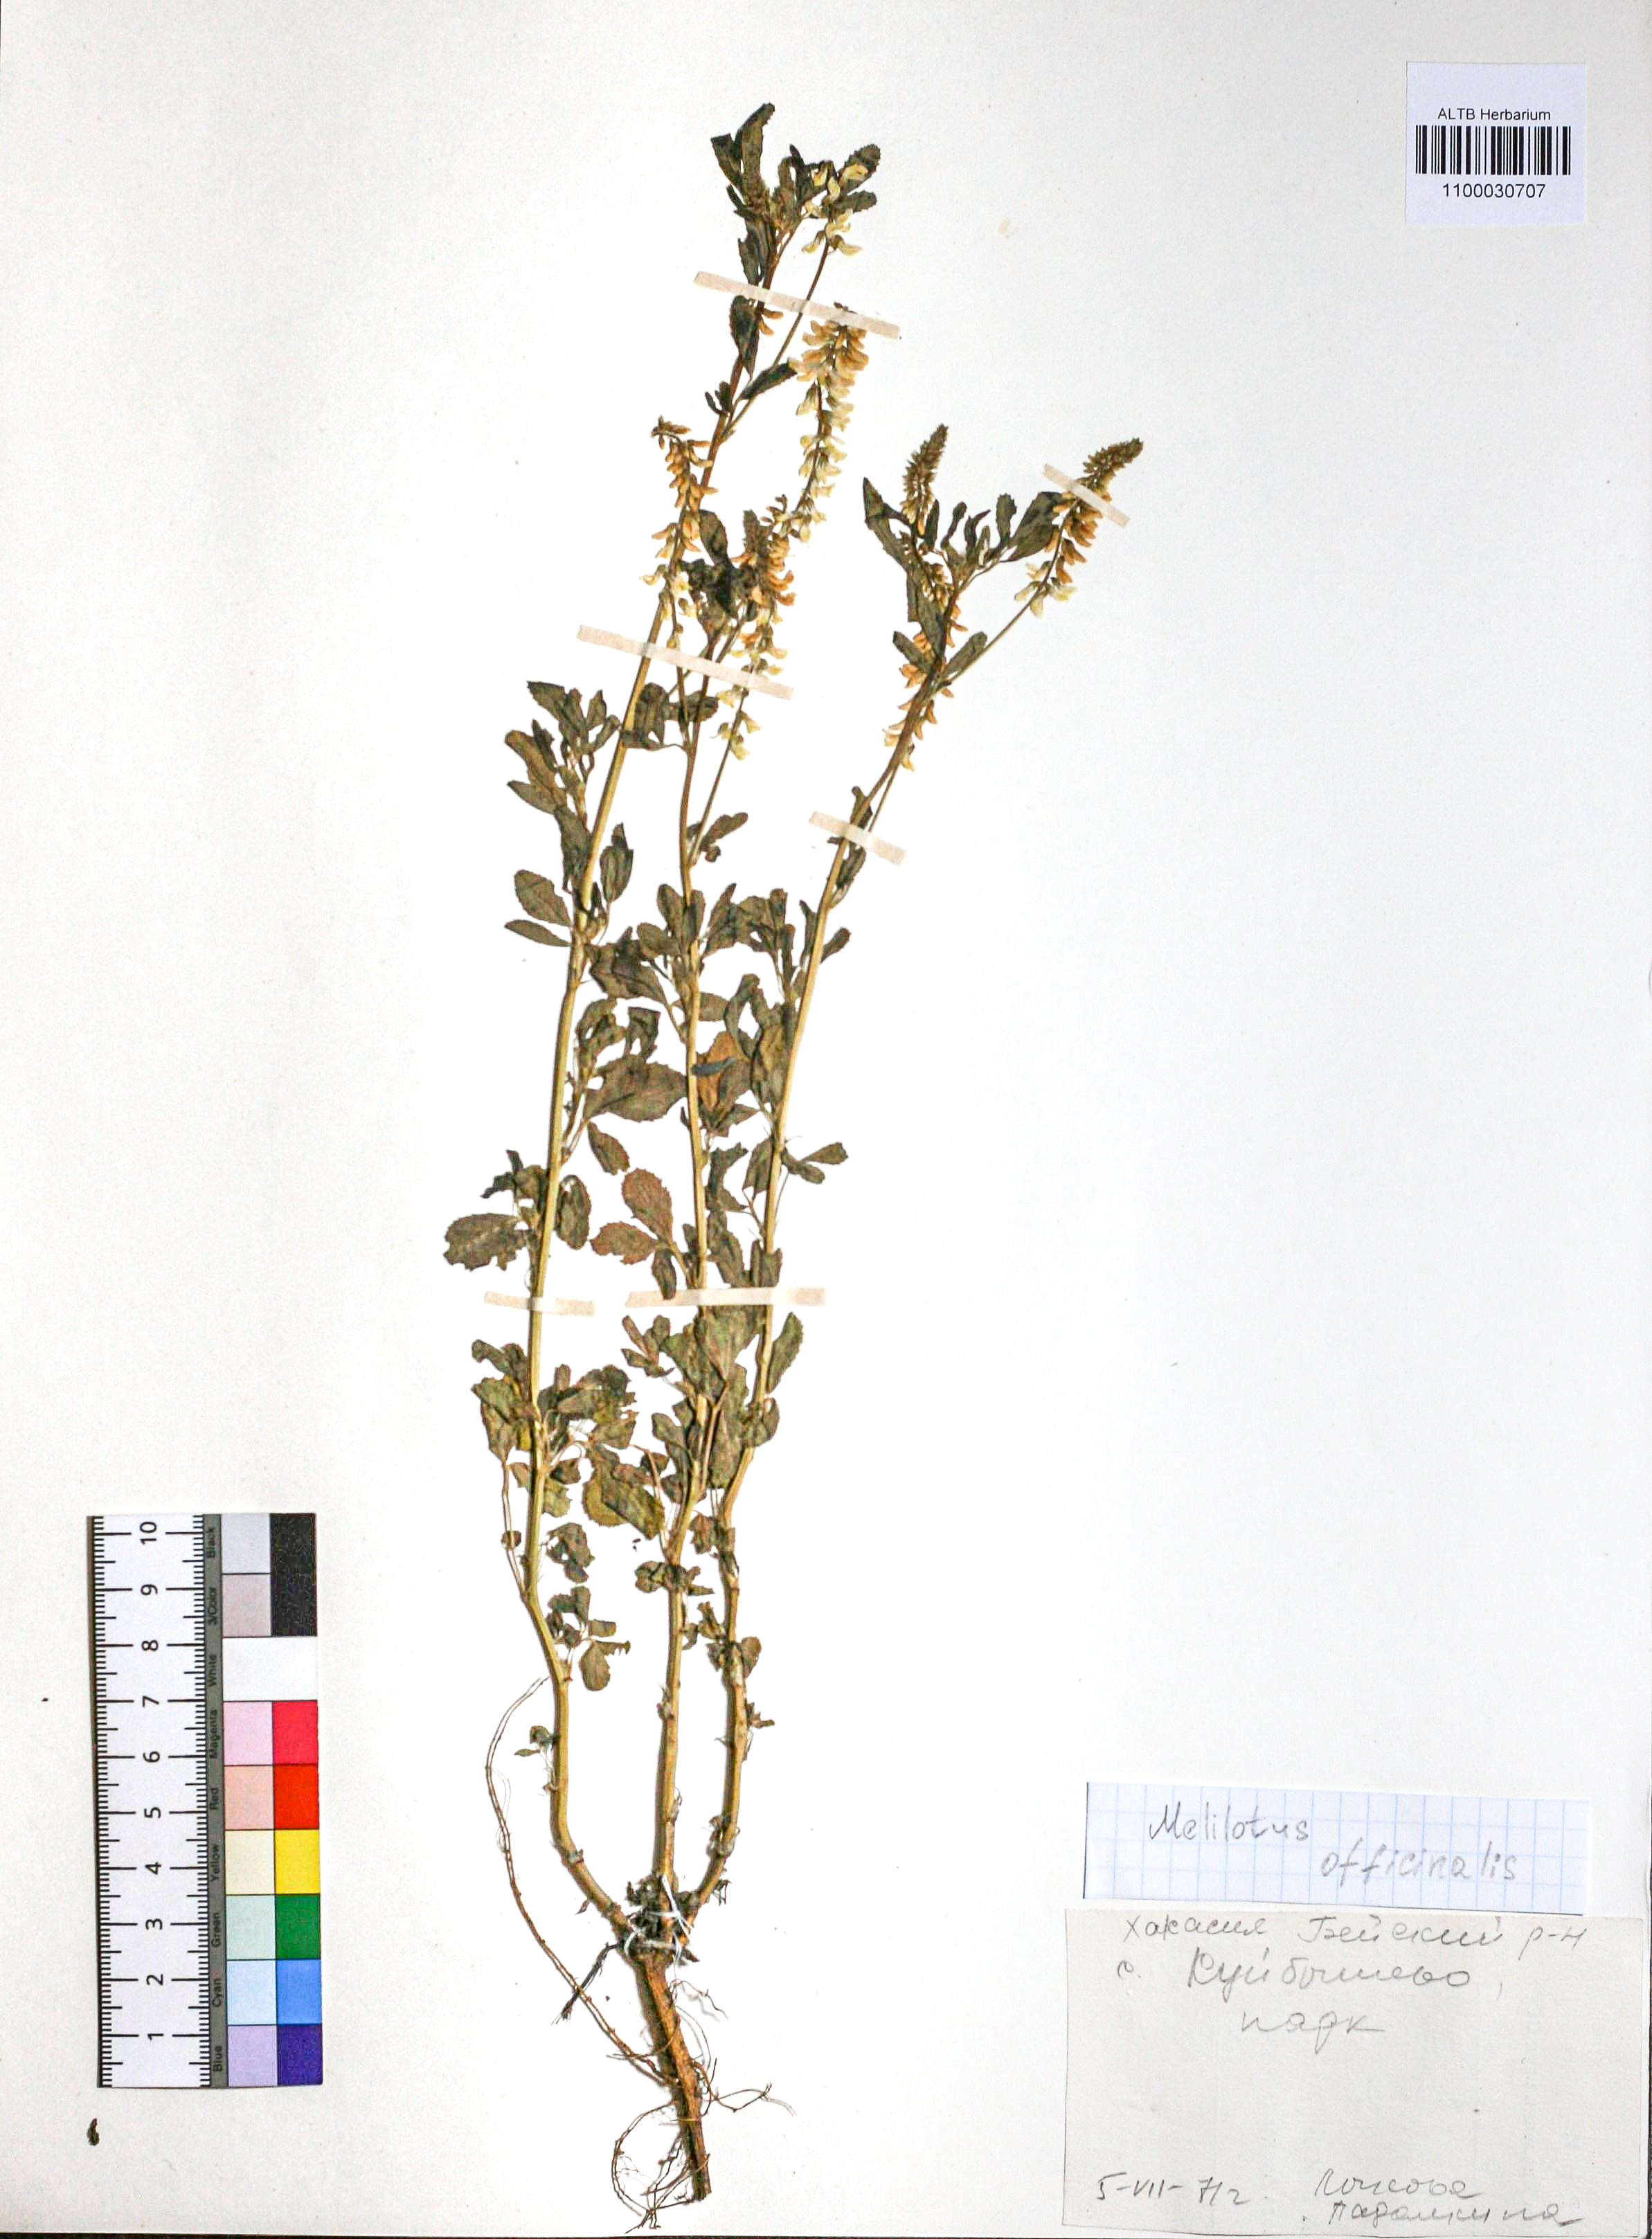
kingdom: Plantae
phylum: Tracheophyta
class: Magnoliopsida
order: Fabales
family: Fabaceae
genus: Melilotus
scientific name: Melilotus officinalis
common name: Sweetclover
